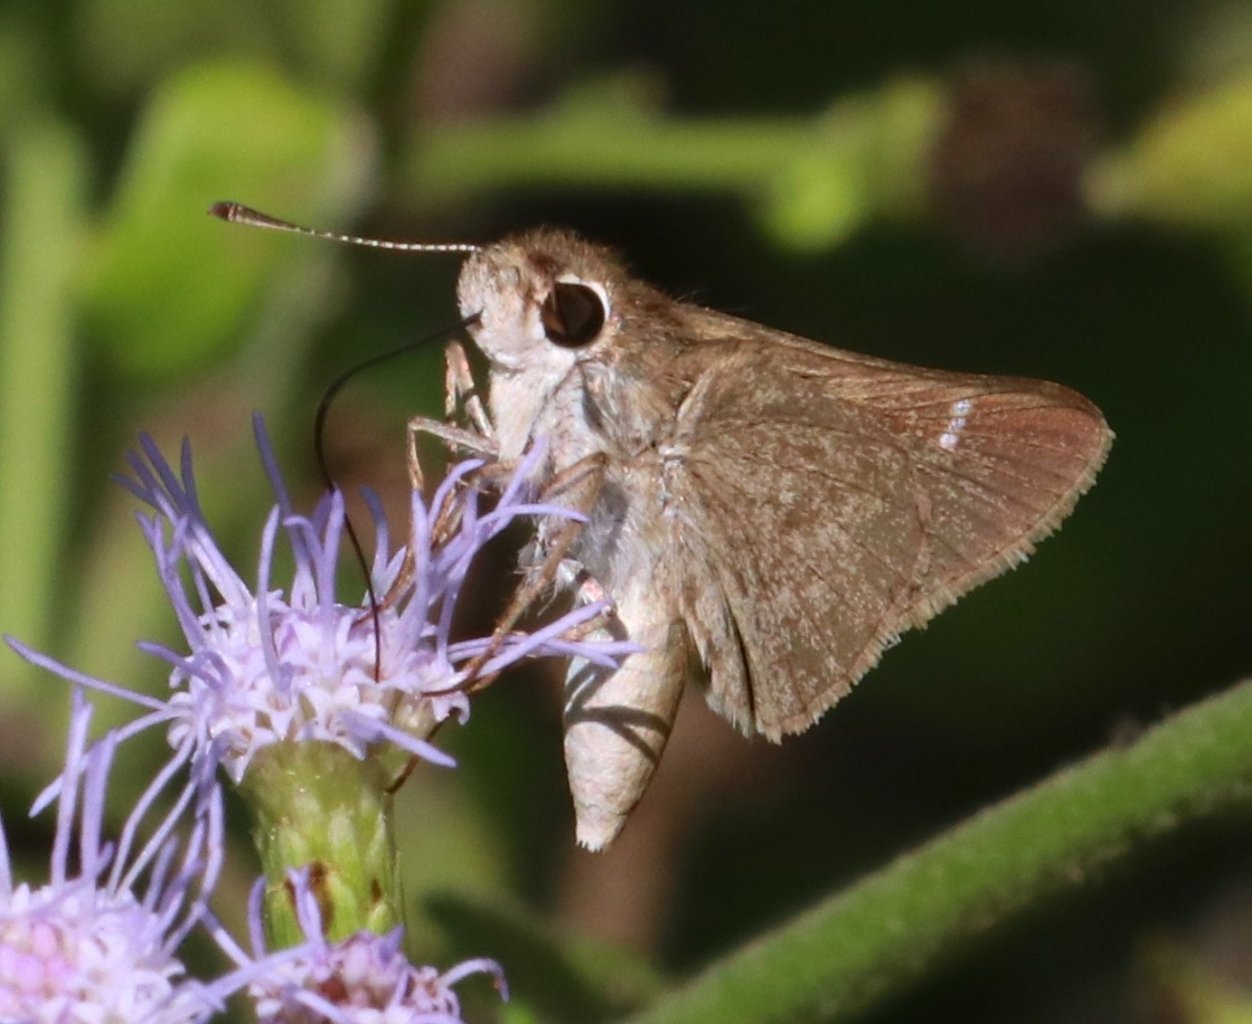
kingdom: Animalia
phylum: Arthropoda
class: Insecta
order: Lepidoptera
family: Hesperiidae
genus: Lerodea
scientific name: Lerodea eufala
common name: Eufala Skipper
